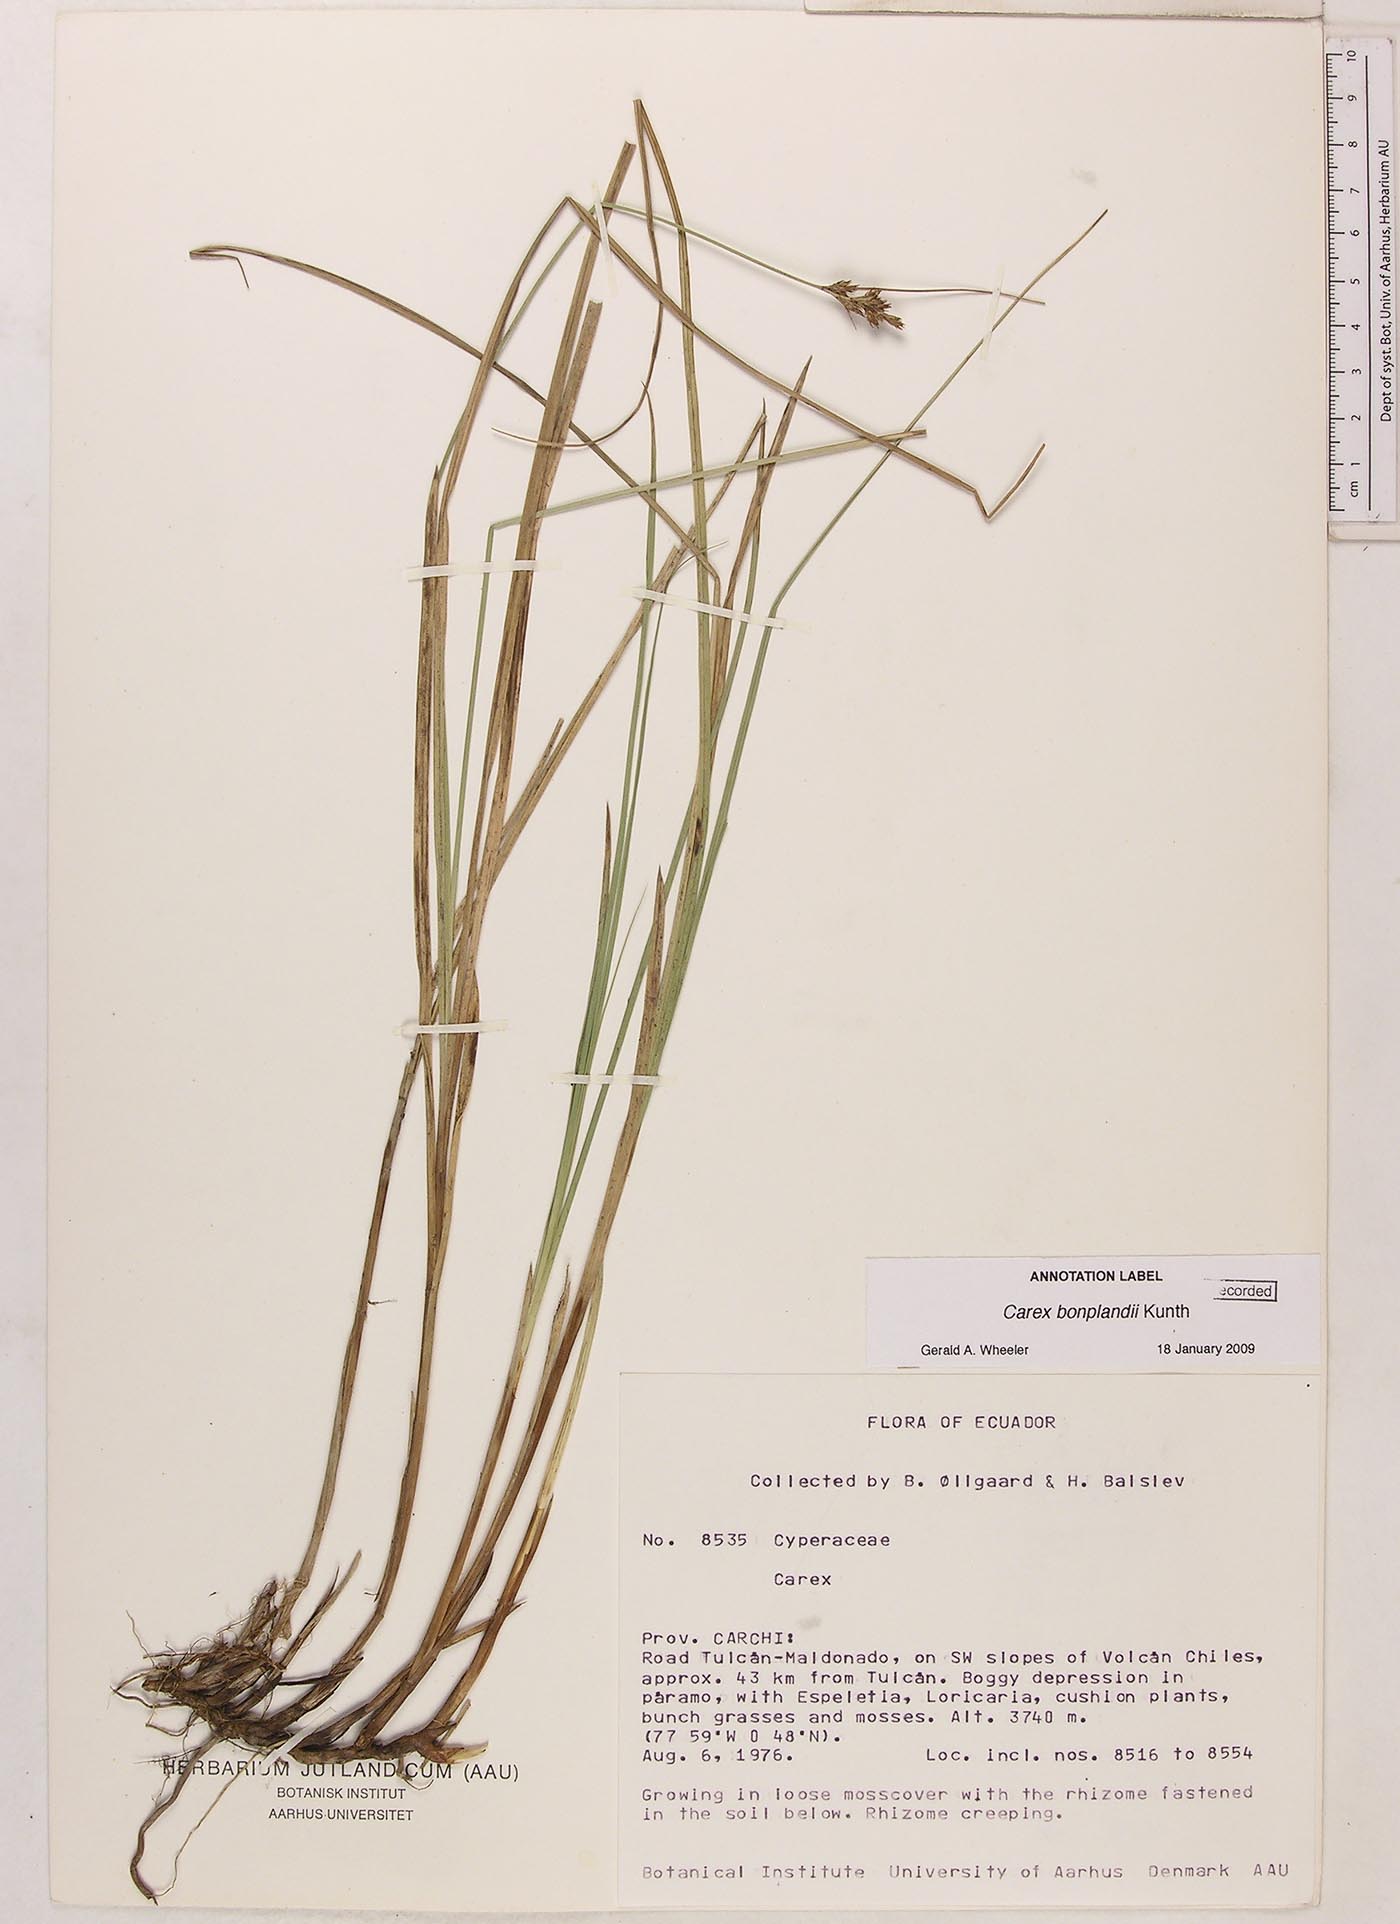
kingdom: Plantae
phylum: Tracheophyta
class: Liliopsida
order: Poales
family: Cyperaceae
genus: Carex
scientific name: Carex bonplandii
